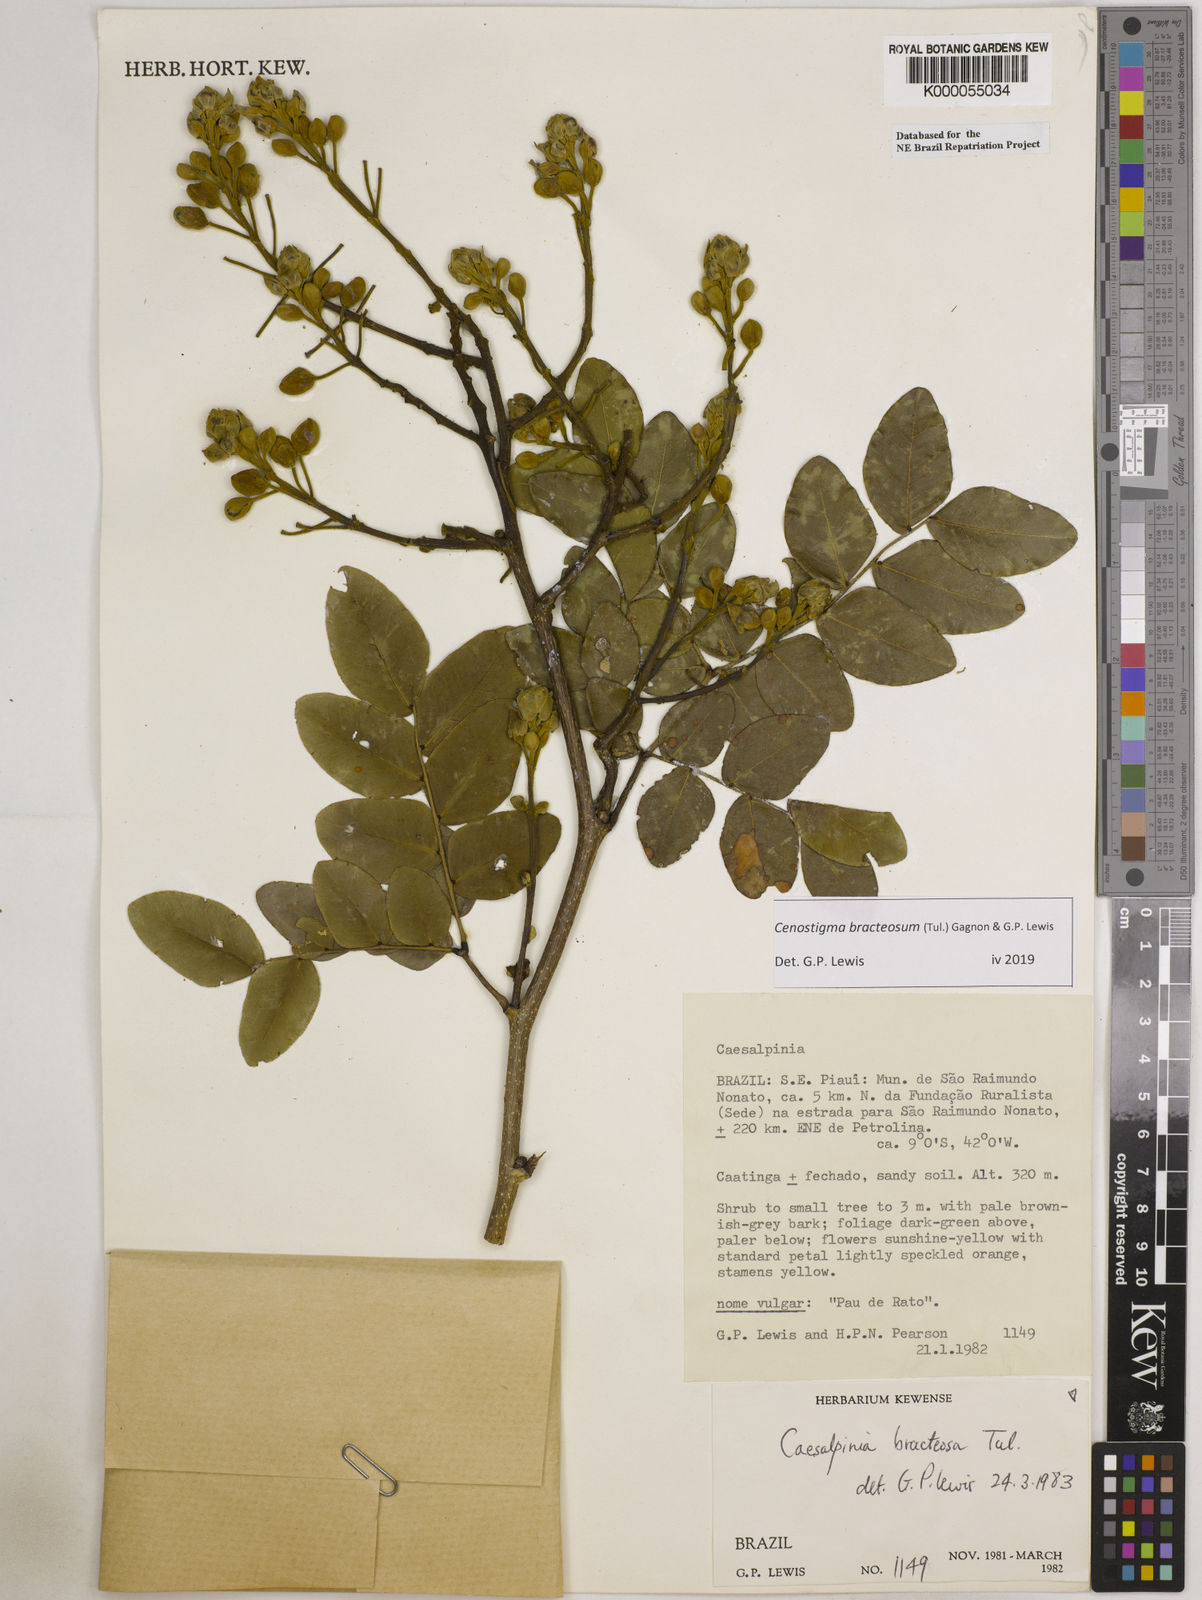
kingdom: Plantae
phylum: Tracheophyta
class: Magnoliopsida
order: Fabales
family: Fabaceae
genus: Cenostigma
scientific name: Cenostigma bracteosum
